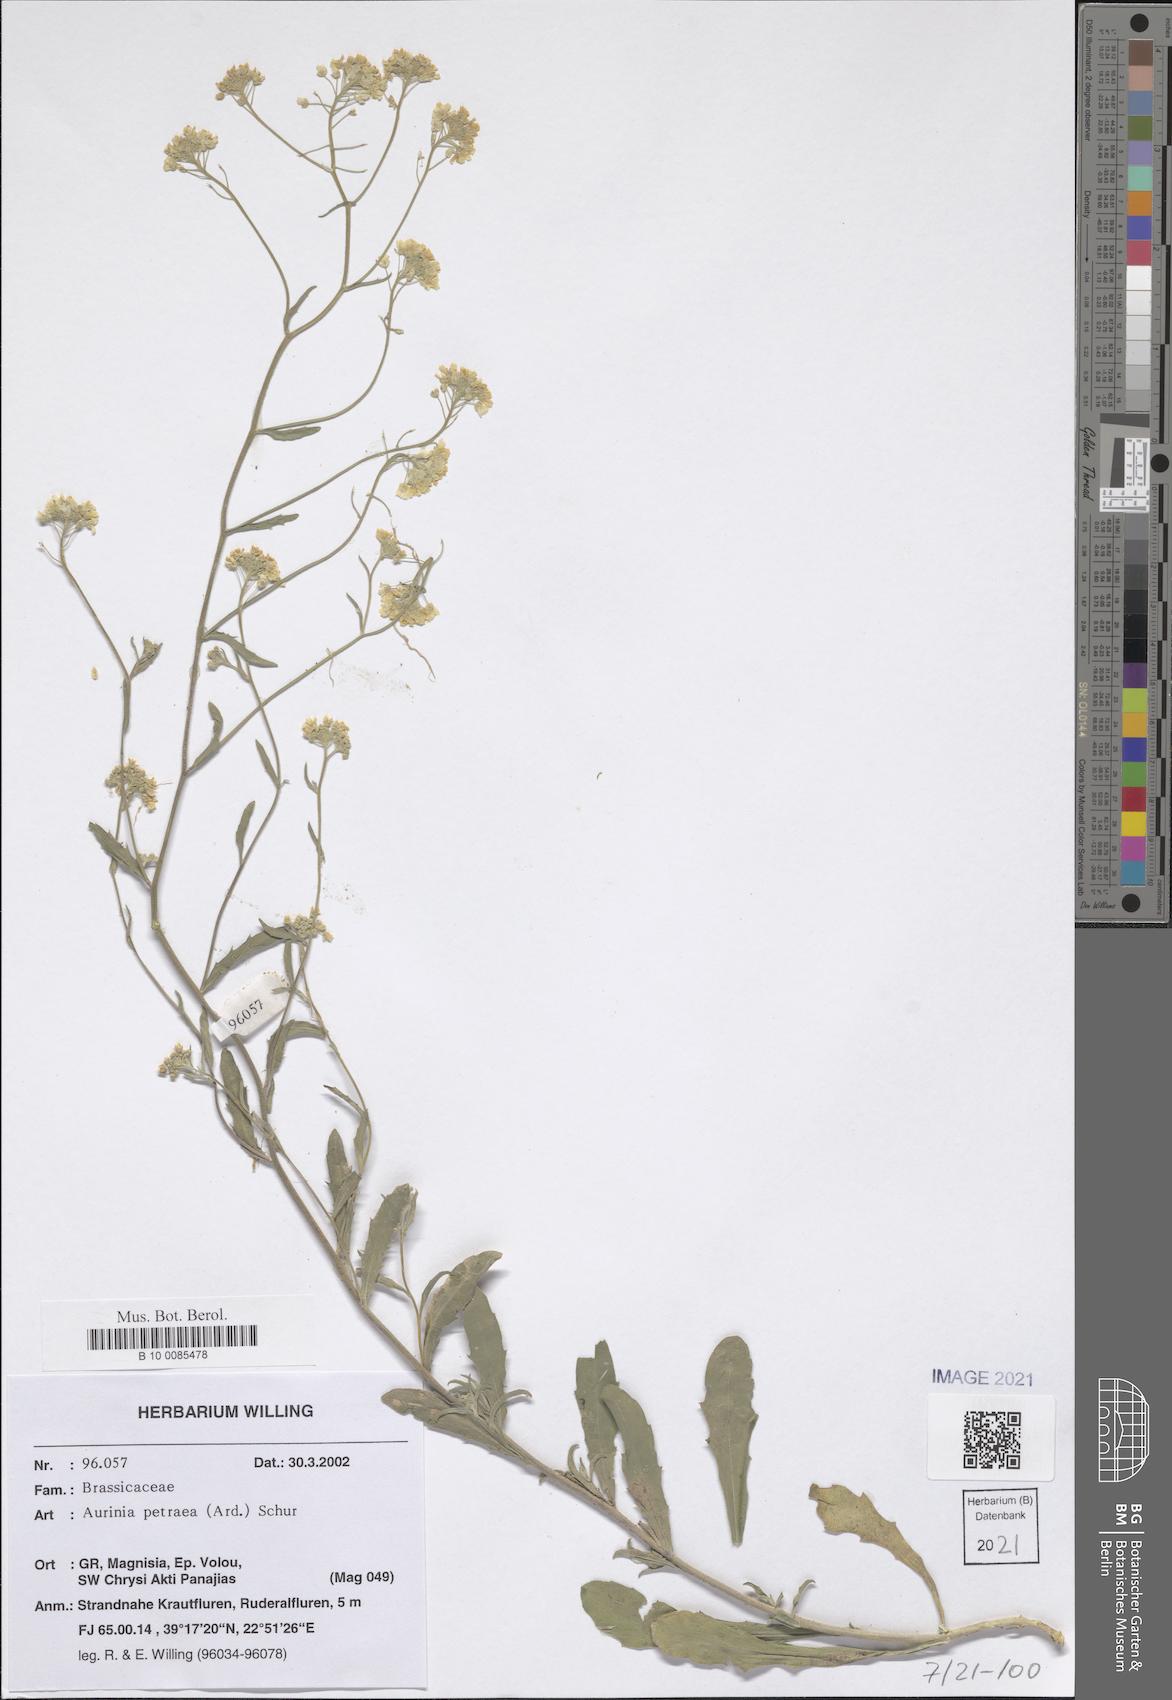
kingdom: Plantae
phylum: Tracheophyta
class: Magnoliopsida
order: Brassicales
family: Brassicaceae
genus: Aurinia
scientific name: Aurinia petraea
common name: Goldentuft
